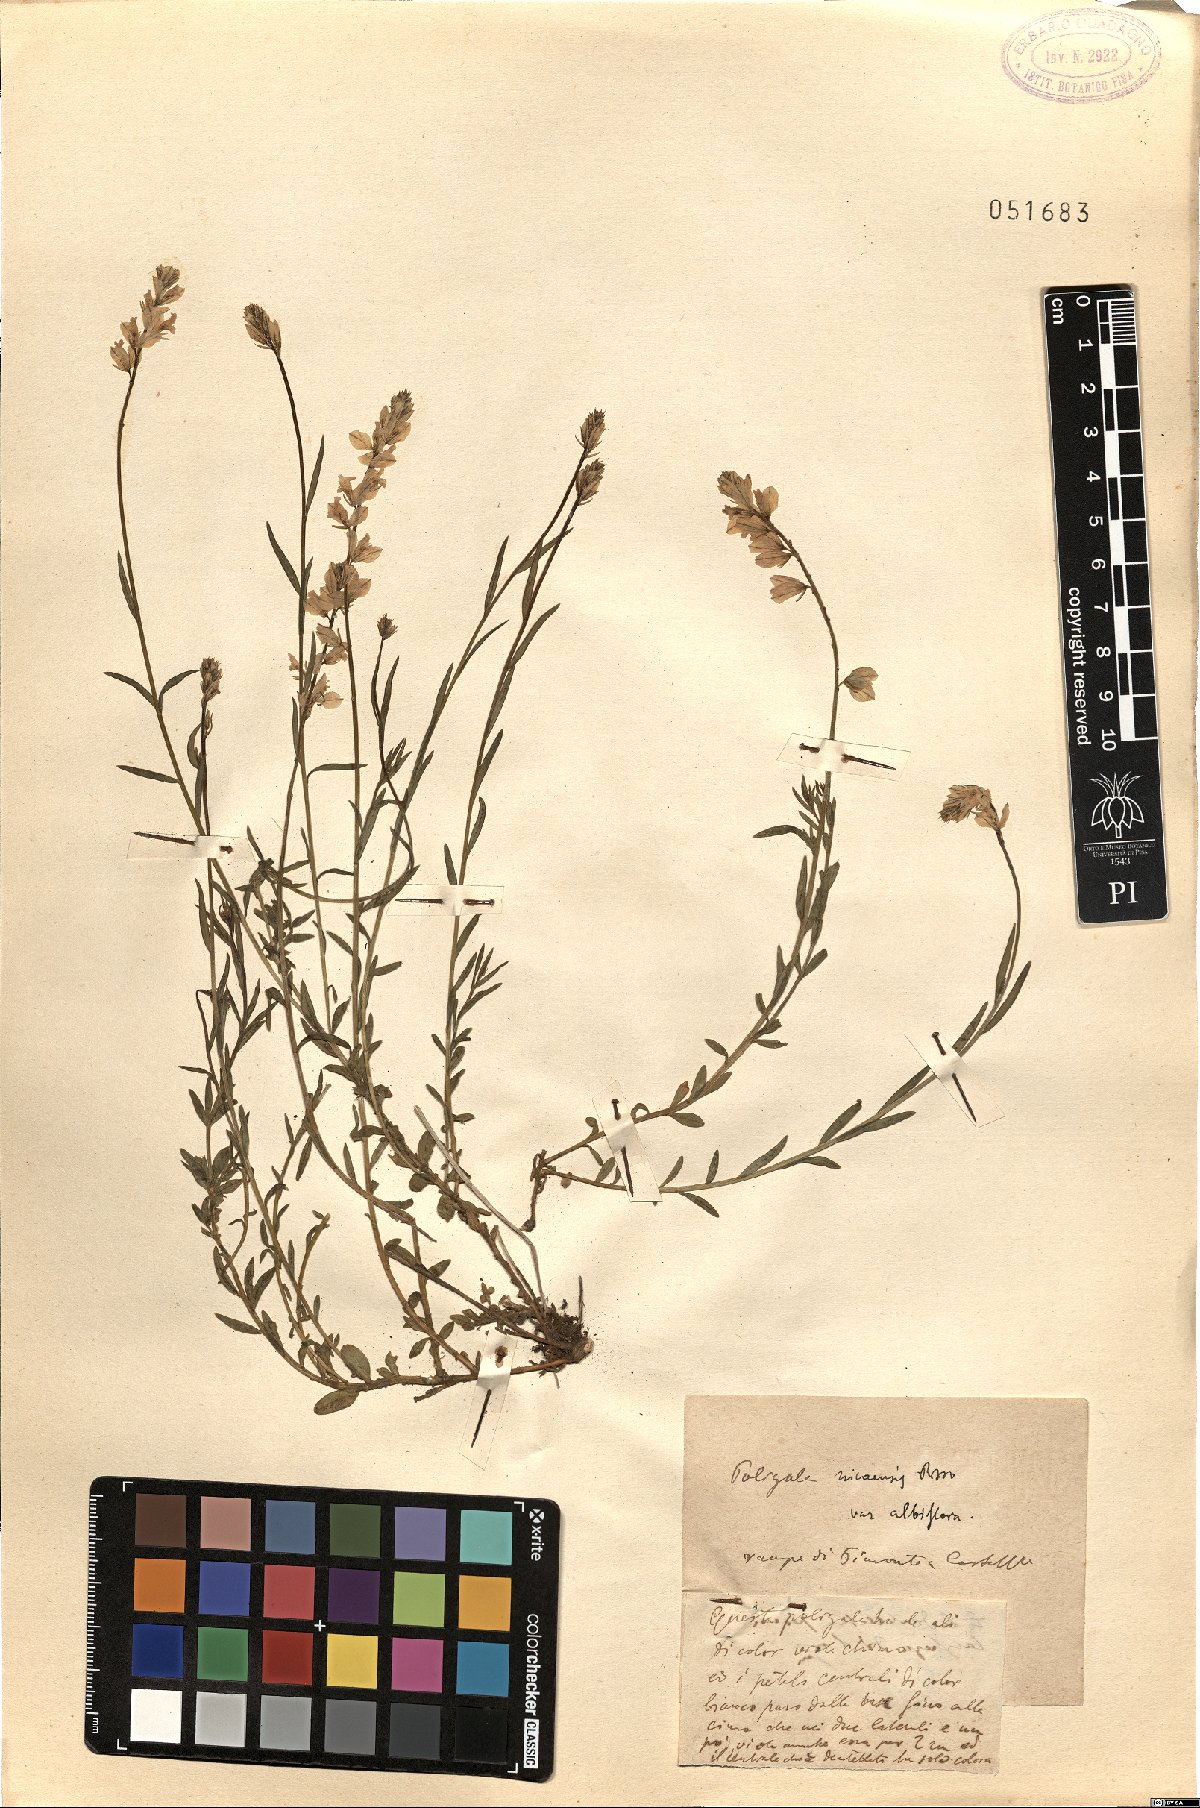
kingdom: Plantae
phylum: Tracheophyta
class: Magnoliopsida
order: Fabales
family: Polygalaceae
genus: Polygala
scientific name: Polygala nicaeensis
